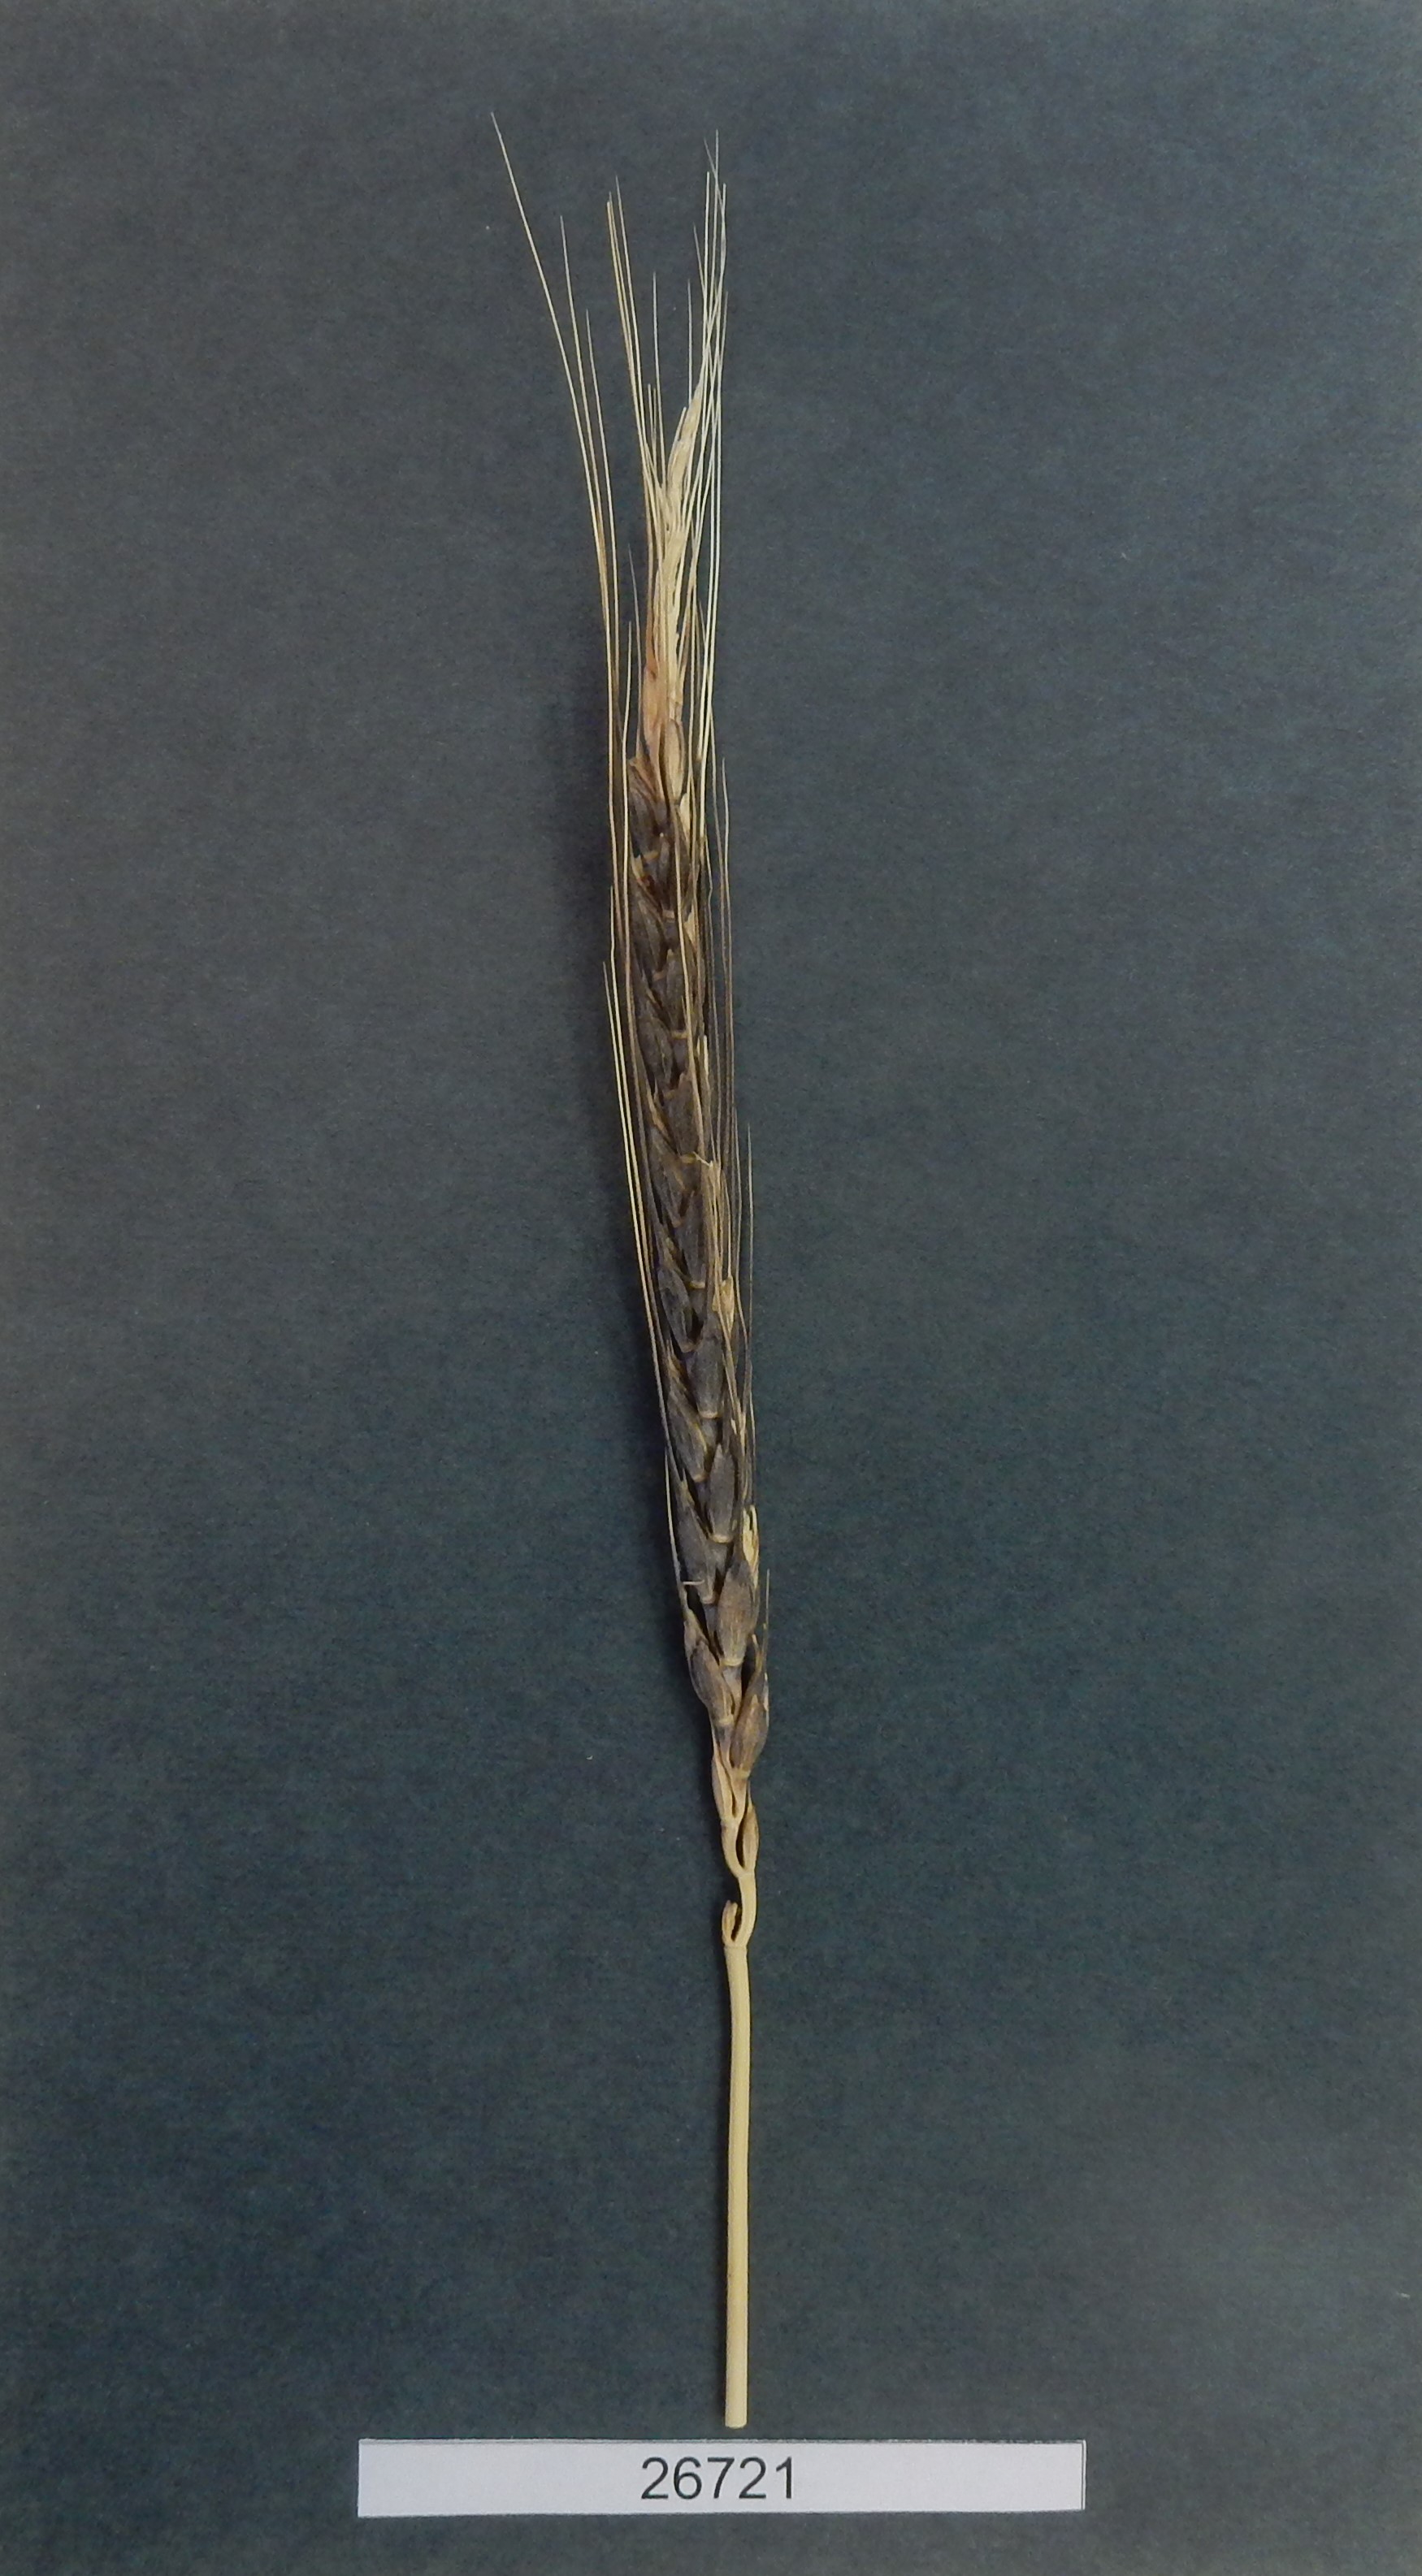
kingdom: Plantae
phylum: Tracheophyta
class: Liliopsida
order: Poales
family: Poaceae
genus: Triticum
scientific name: Triticum aestivum
